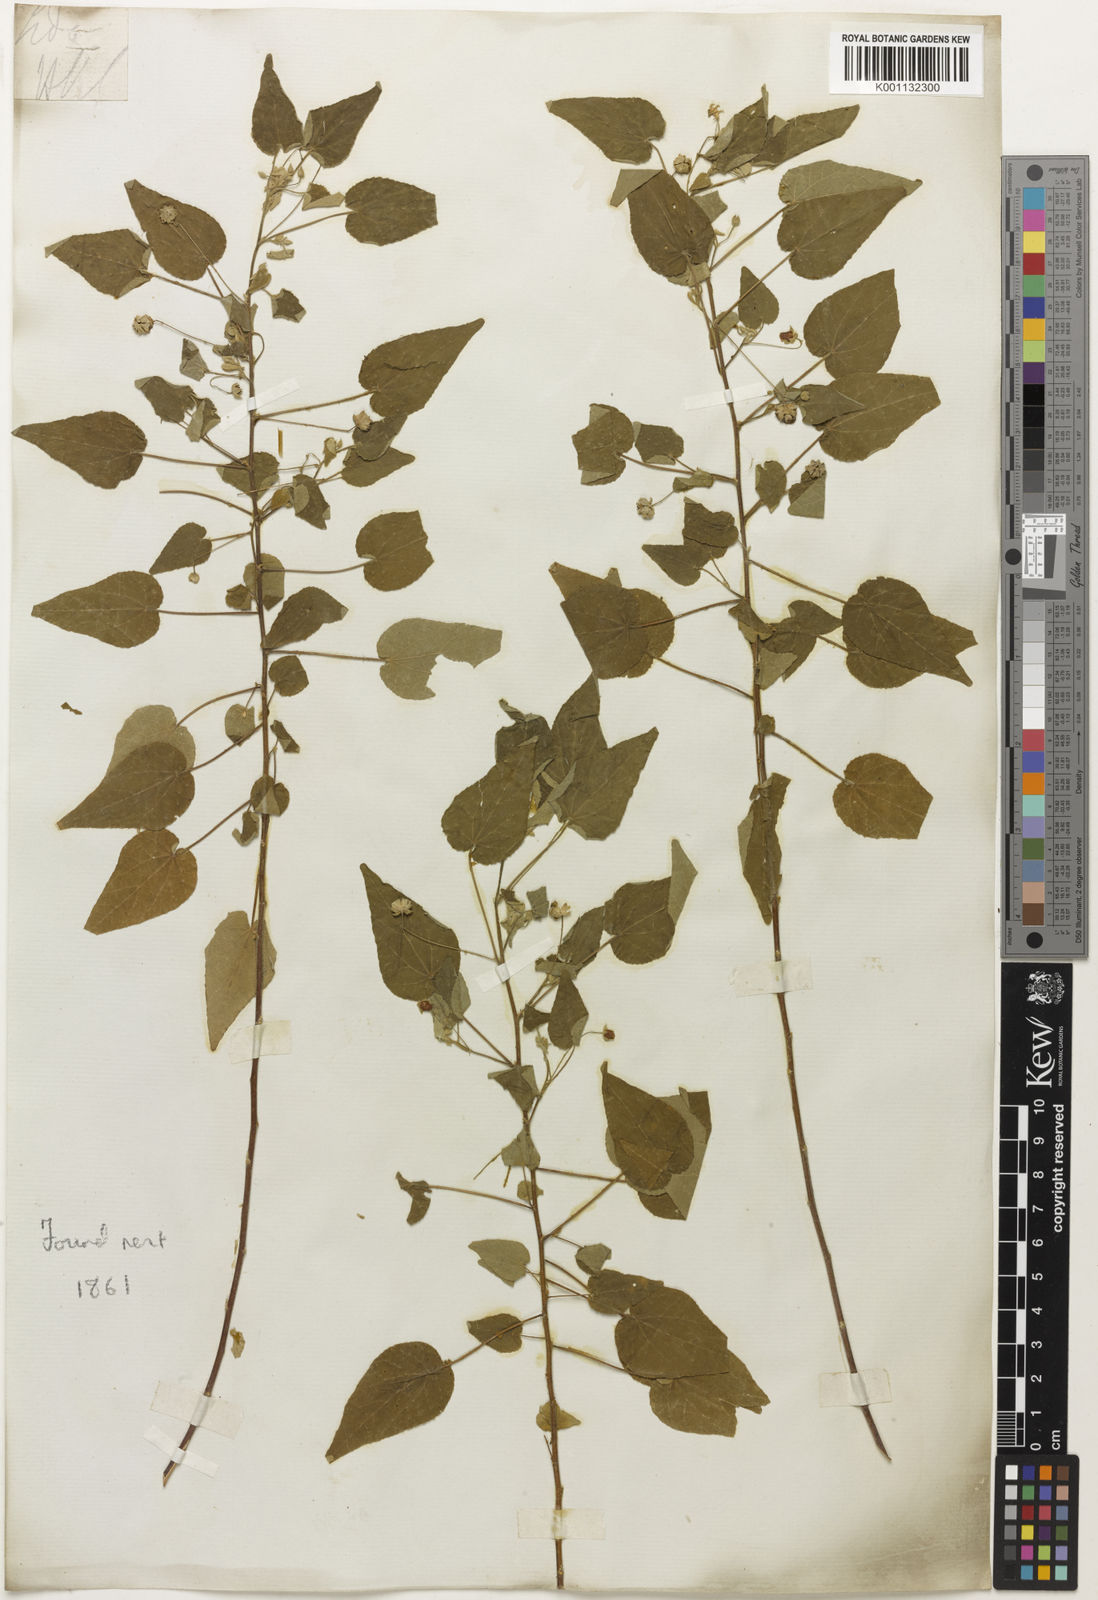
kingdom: Plantae
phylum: Tracheophyta
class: Magnoliopsida
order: Malvales
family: Malvaceae
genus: Sida
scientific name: Sida
